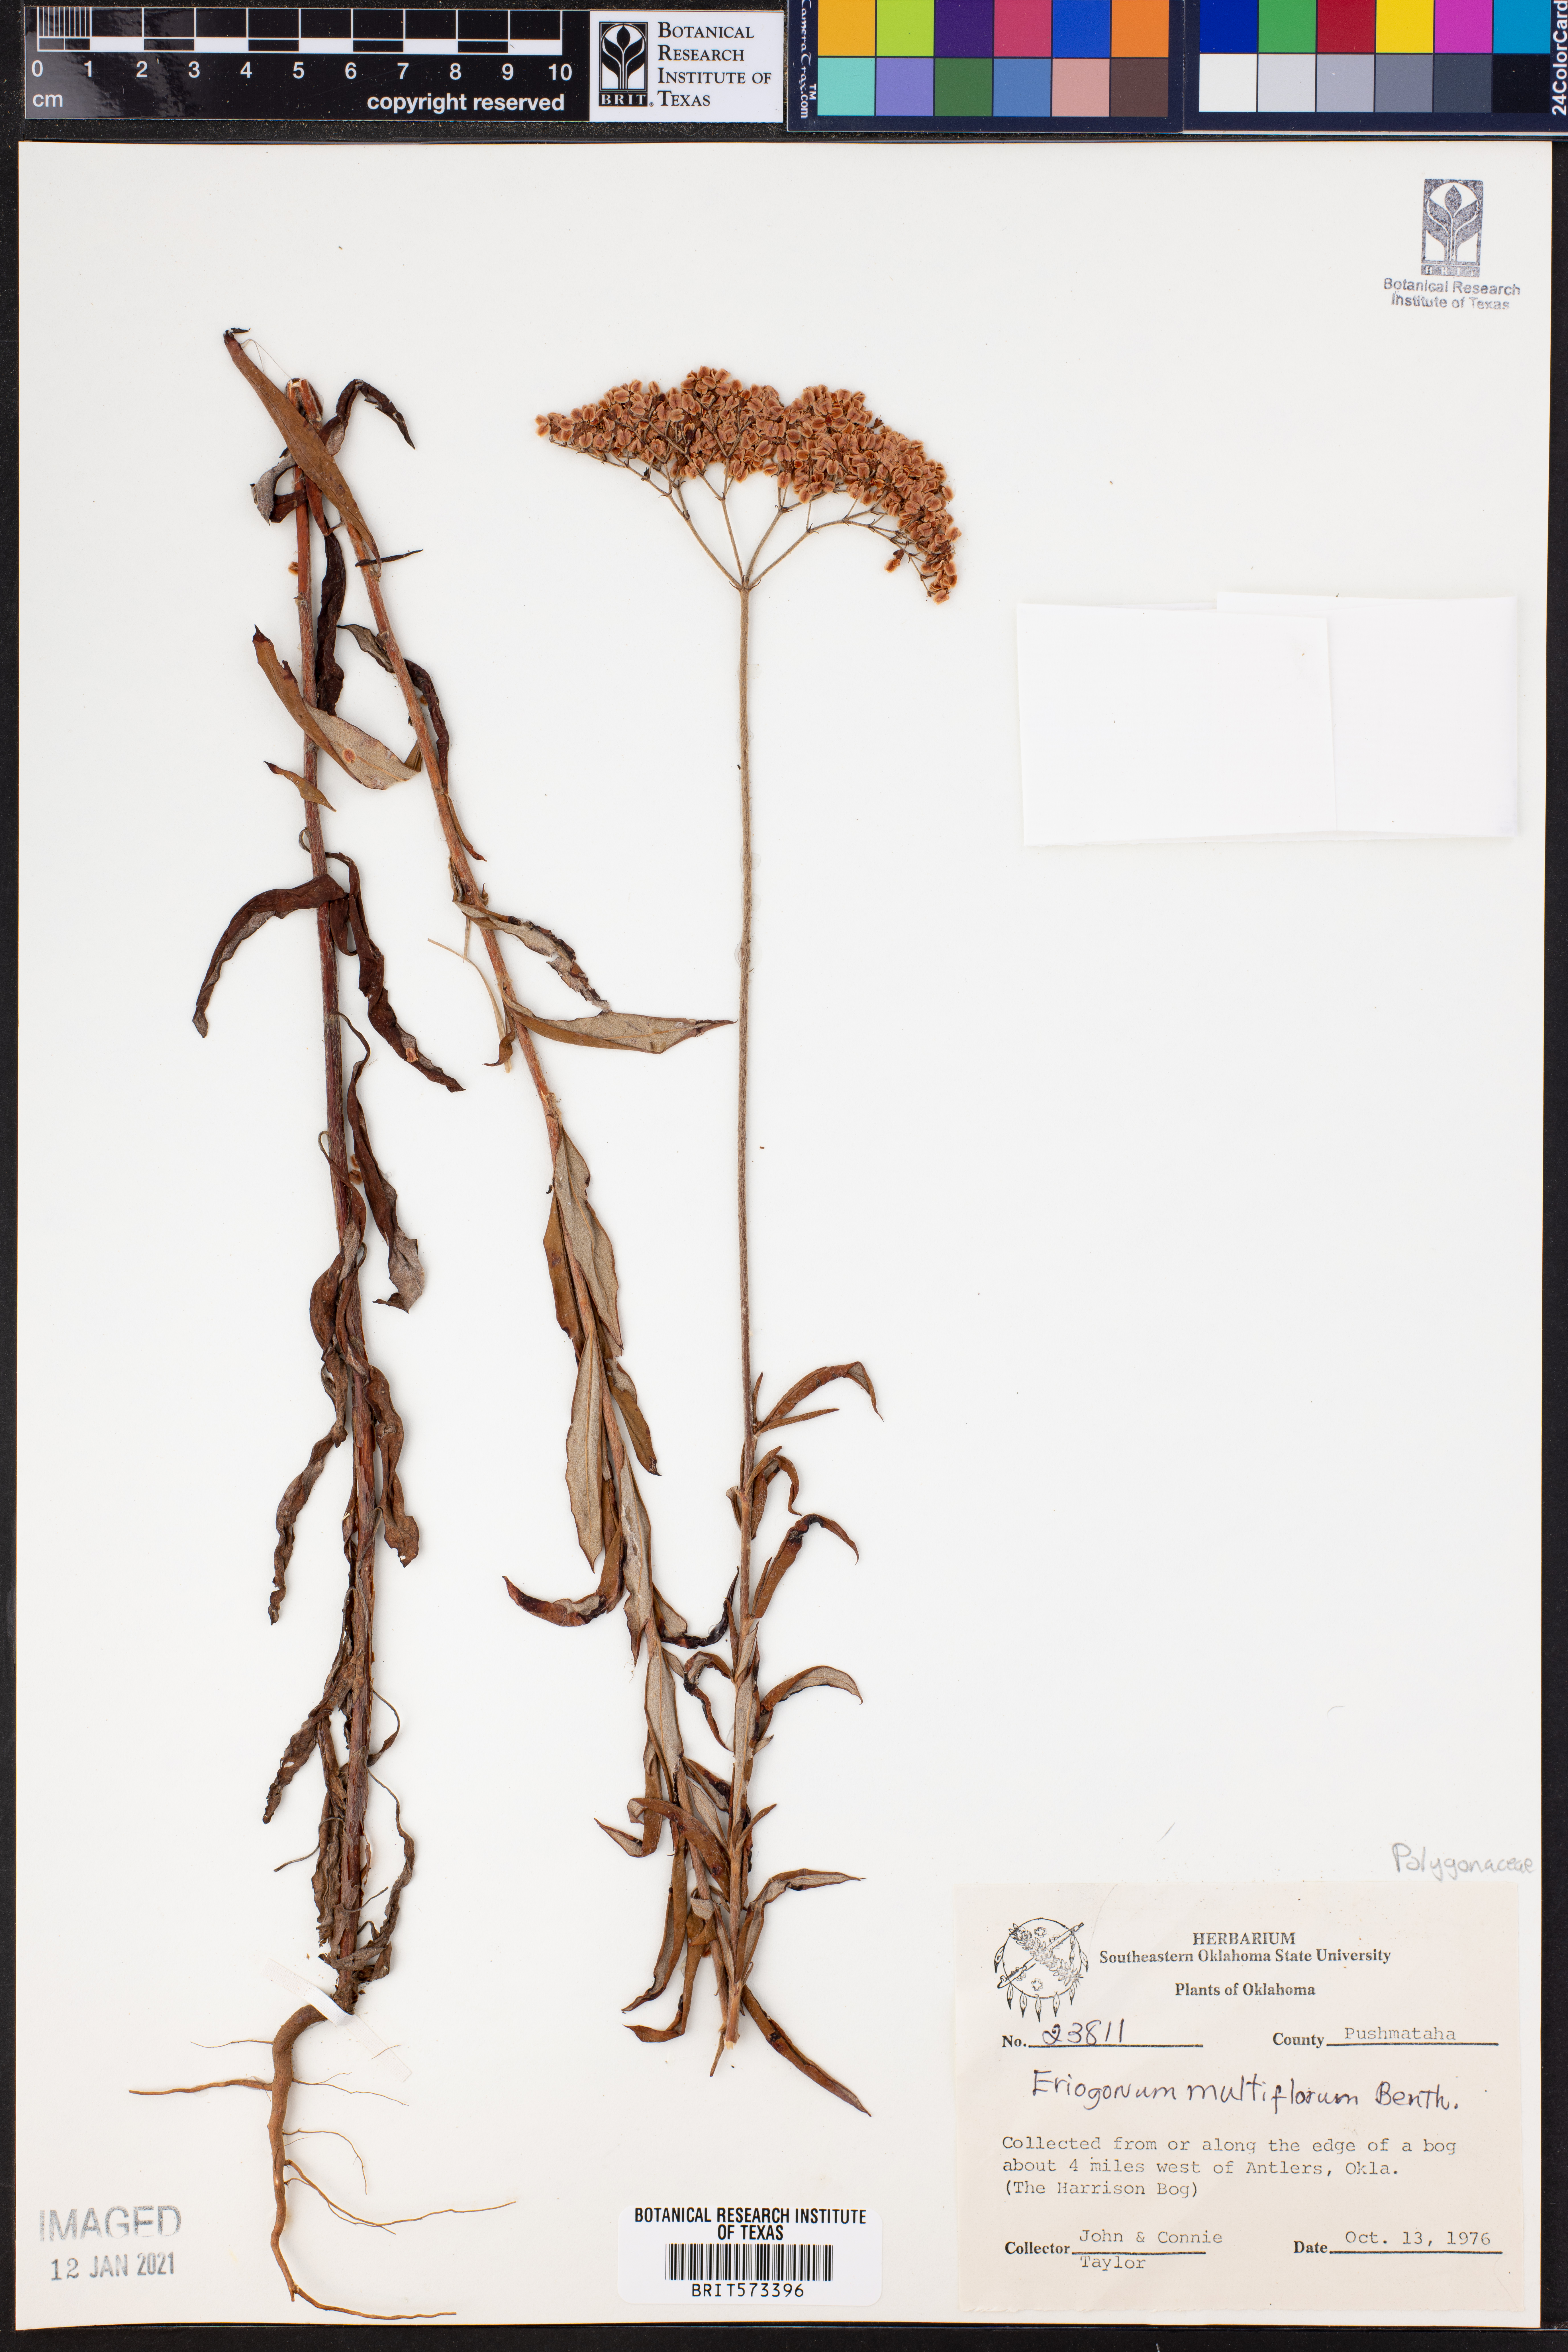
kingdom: Plantae
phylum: Tracheophyta
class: Magnoliopsida
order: Caryophyllales
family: Polygonaceae
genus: Eriogonum
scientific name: Eriogonum multiflorum
